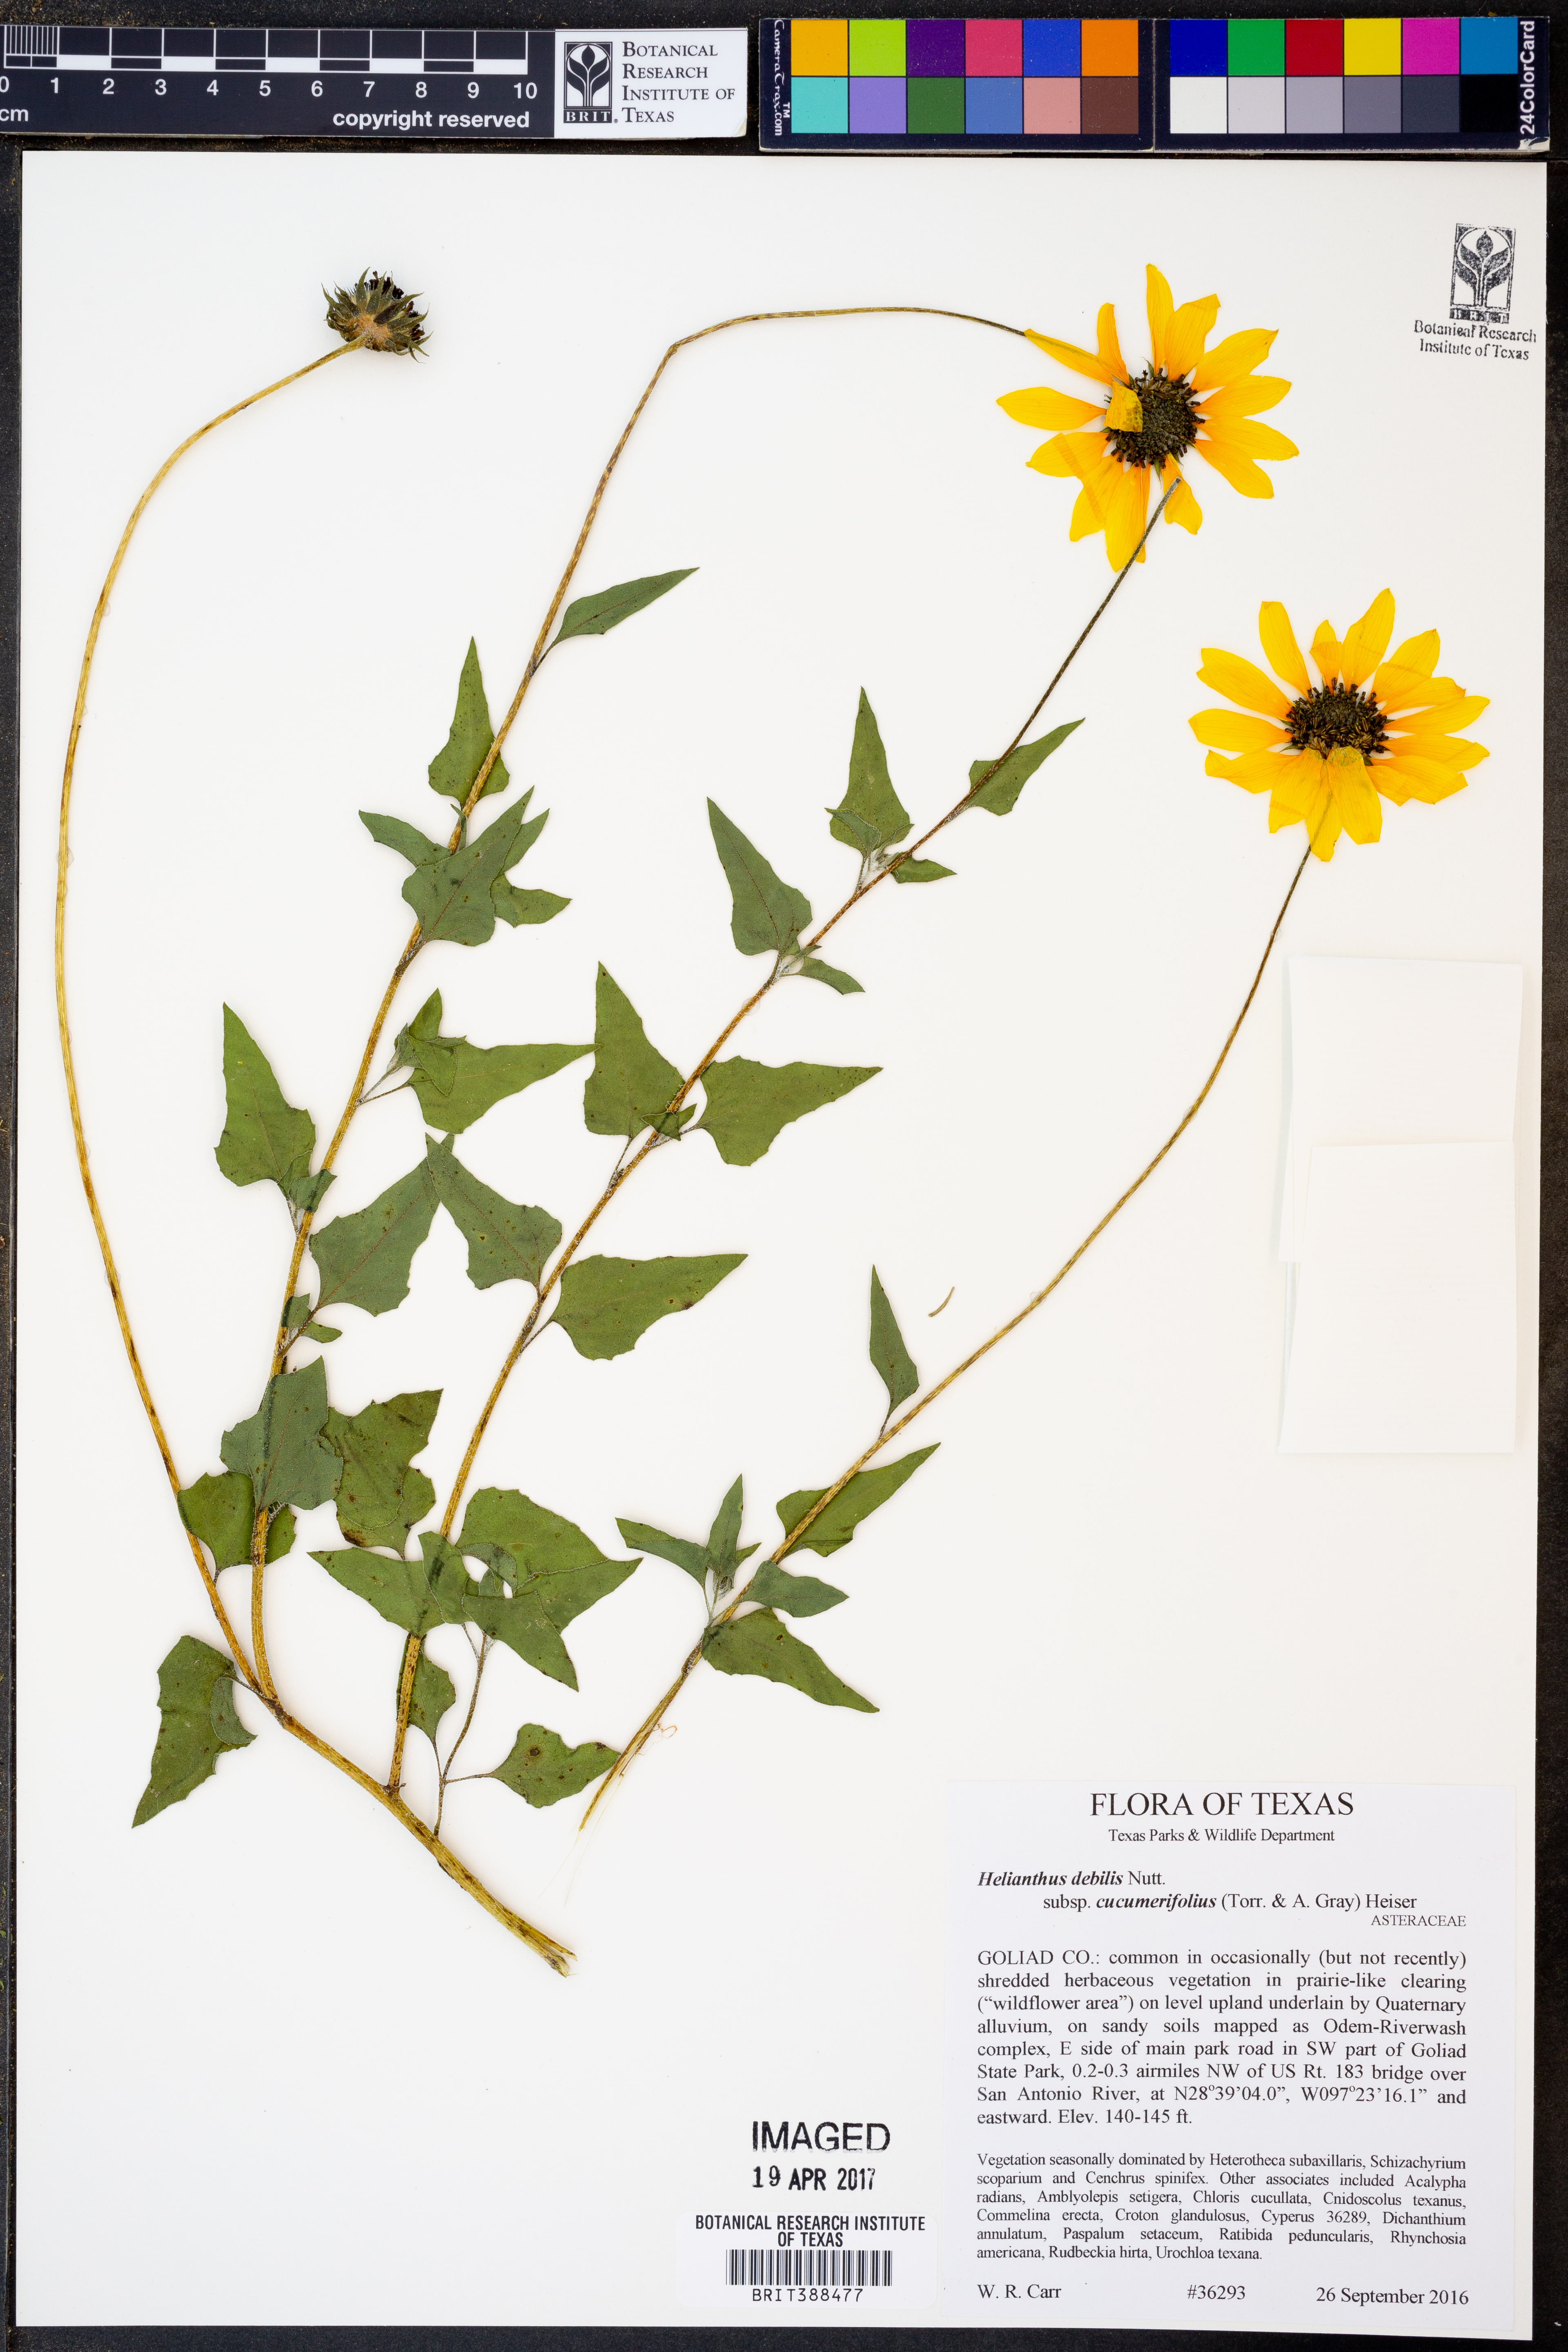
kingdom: Plantae
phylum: Tracheophyta
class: Magnoliopsida
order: Asterales
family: Asteraceae
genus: Helianthus
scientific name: Helianthus debilis
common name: Weak sunflower
